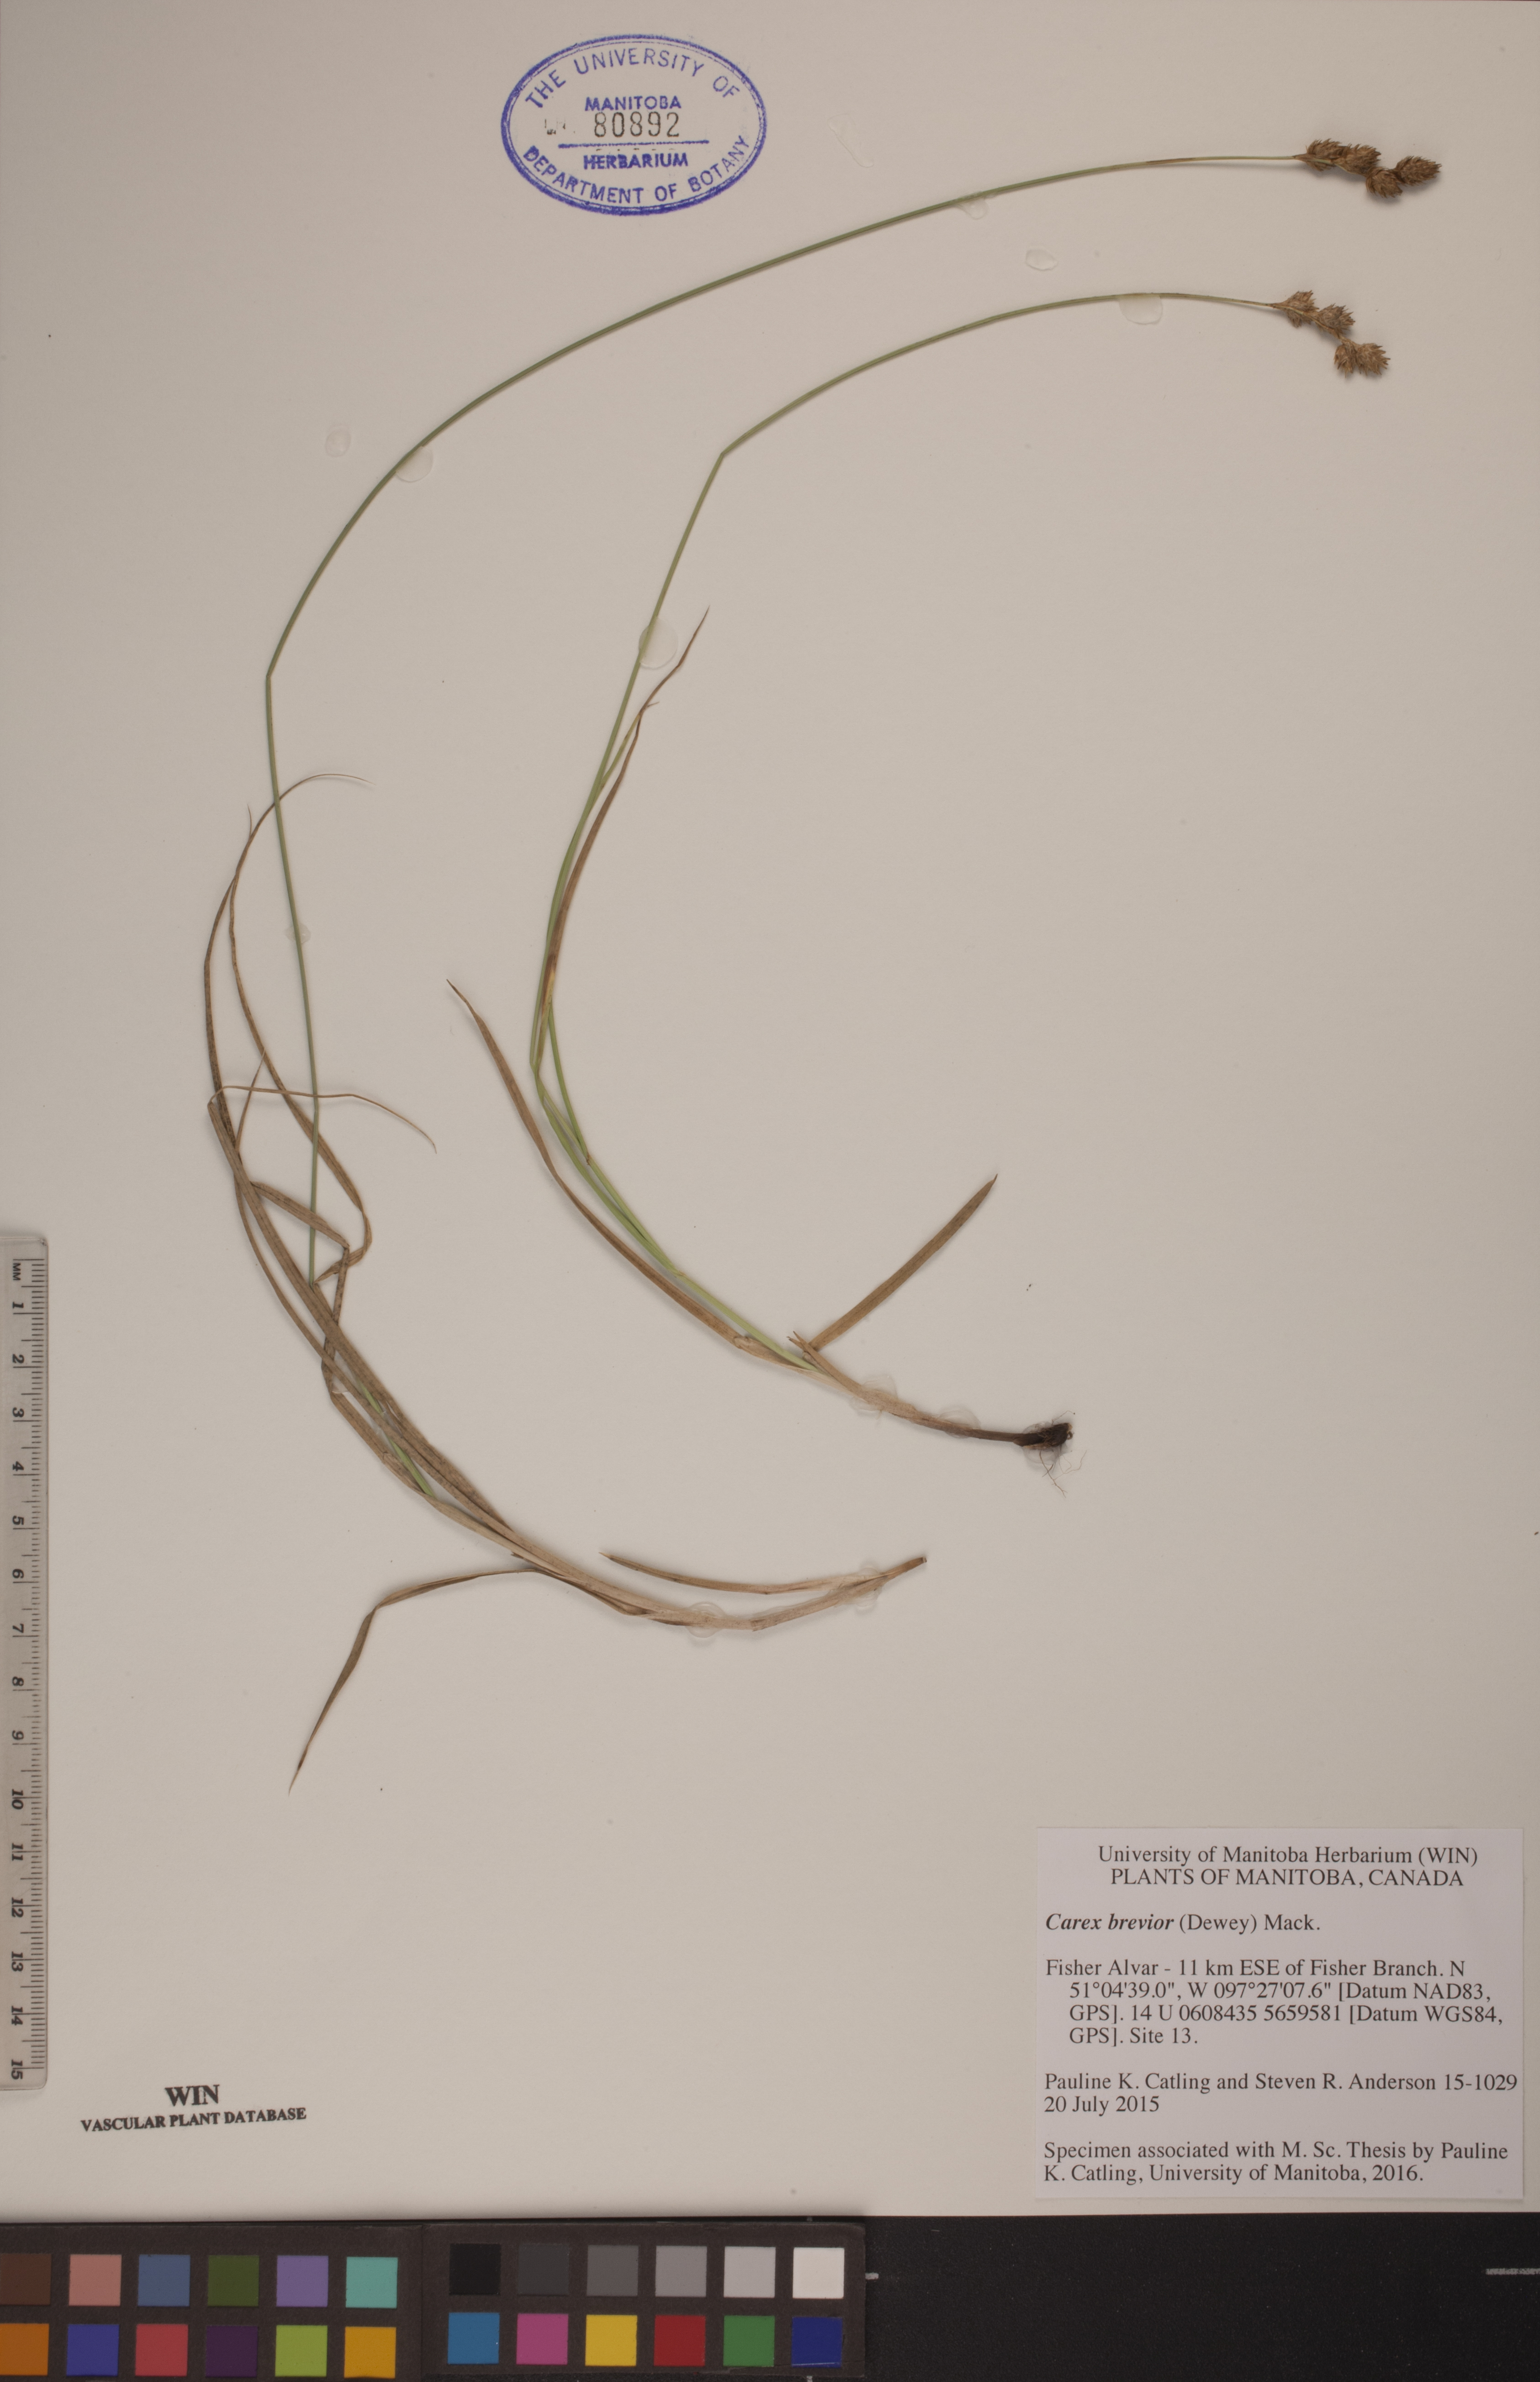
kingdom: Plantae
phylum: Tracheophyta
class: Liliopsida
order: Poales
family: Cyperaceae
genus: Carex
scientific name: Carex brevior
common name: Brevior sedge
